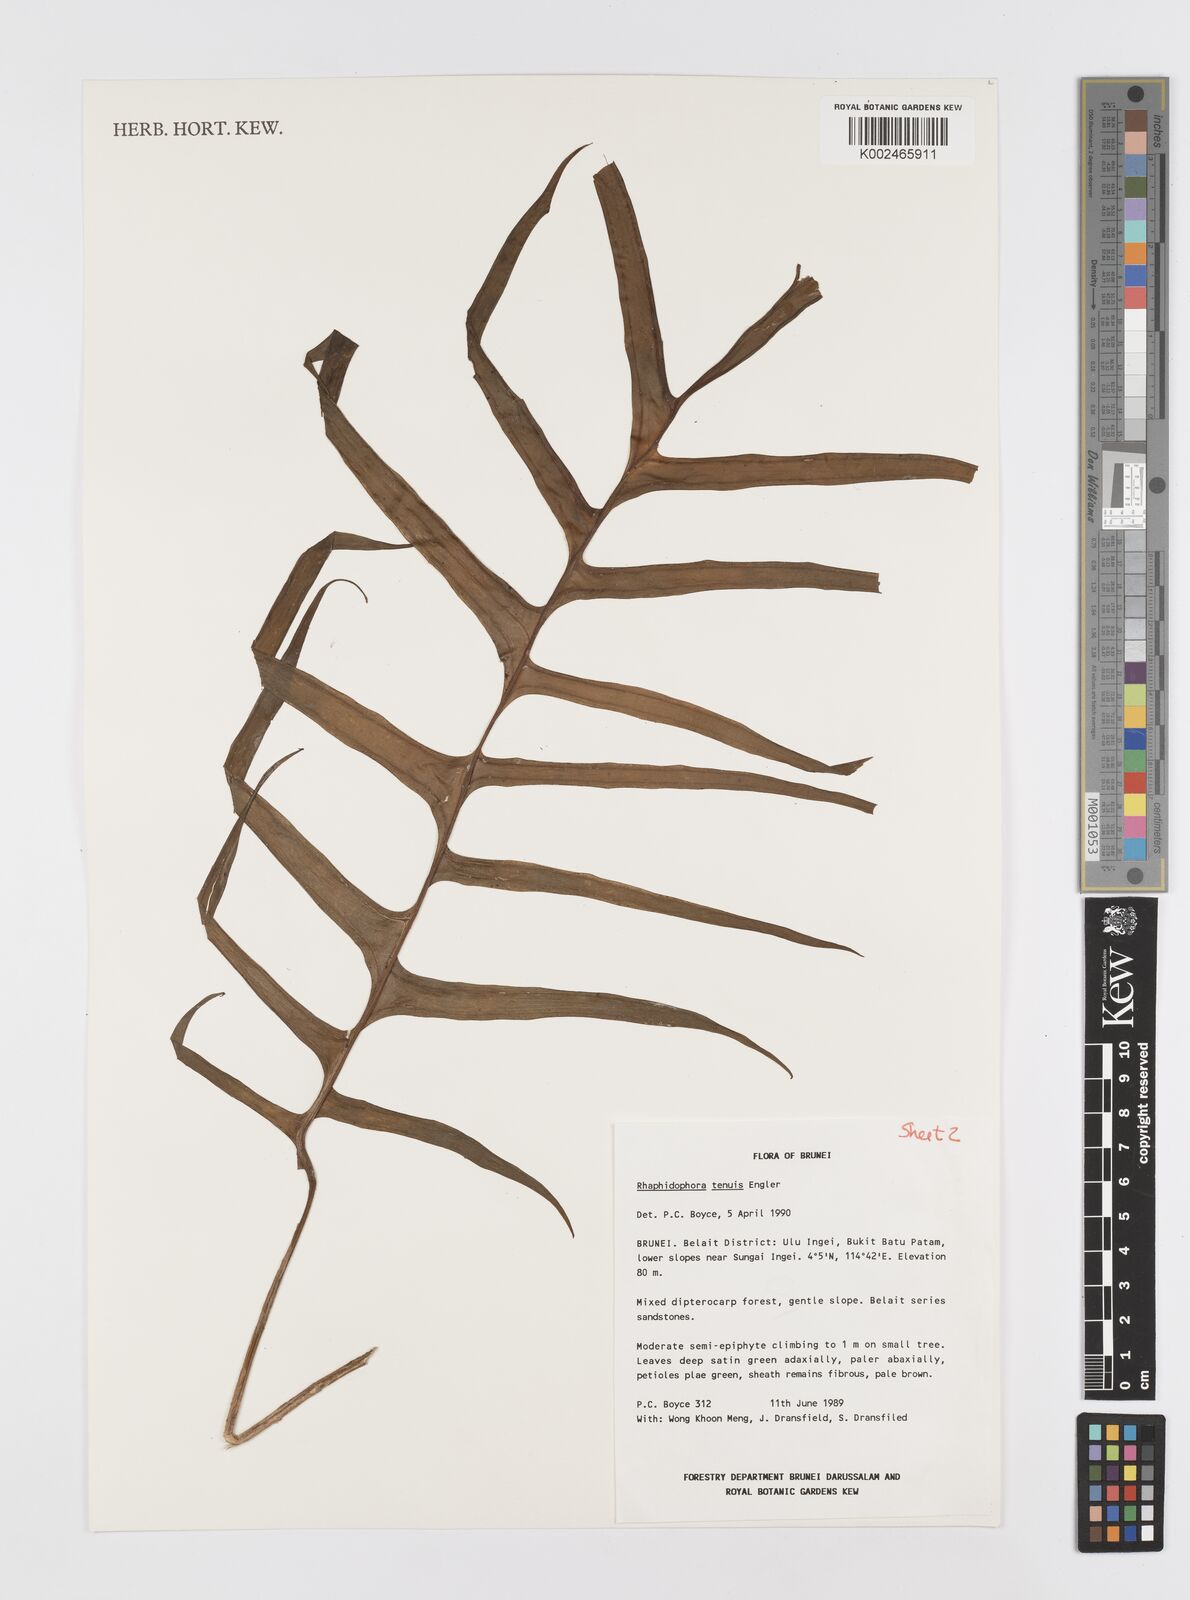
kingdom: Plantae
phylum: Tracheophyta
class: Liliopsida
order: Alismatales
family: Araceae
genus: Rhaphidophora
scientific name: Rhaphidophora korthalsii
